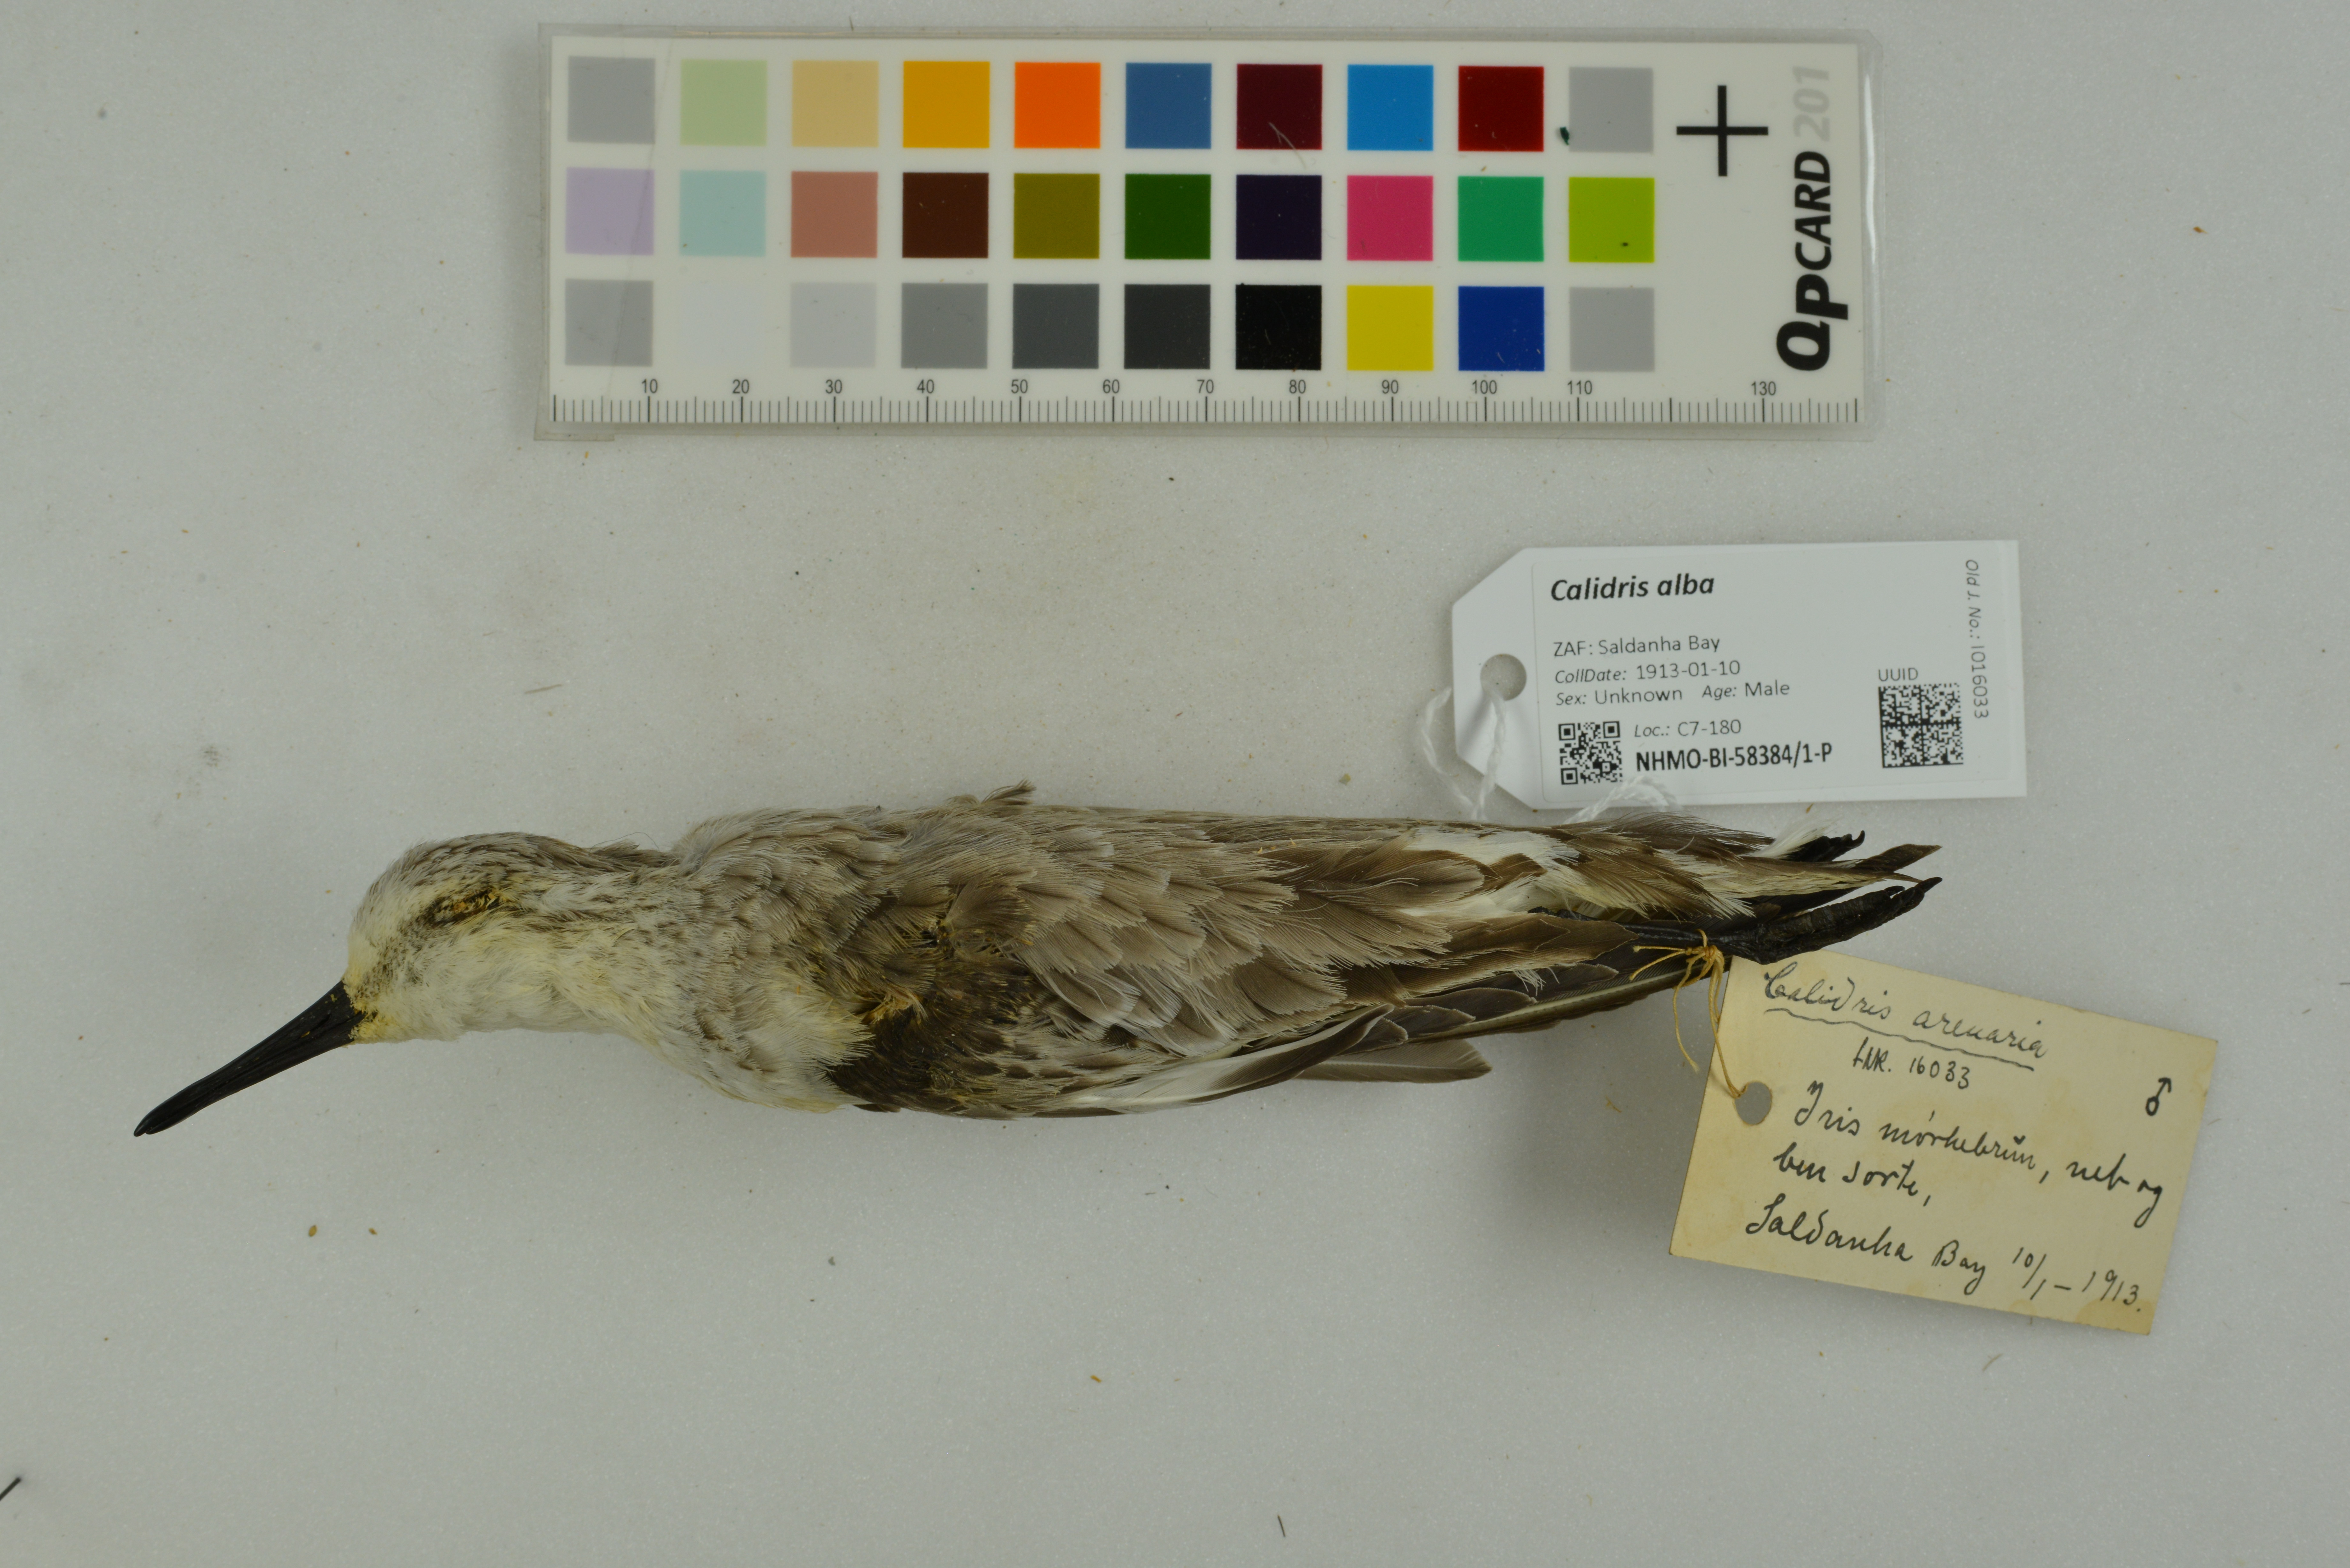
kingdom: Animalia
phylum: Chordata
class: Aves
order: Charadriiformes
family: Scolopacidae
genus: Calidris
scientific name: Calidris alba
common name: Sanderling
